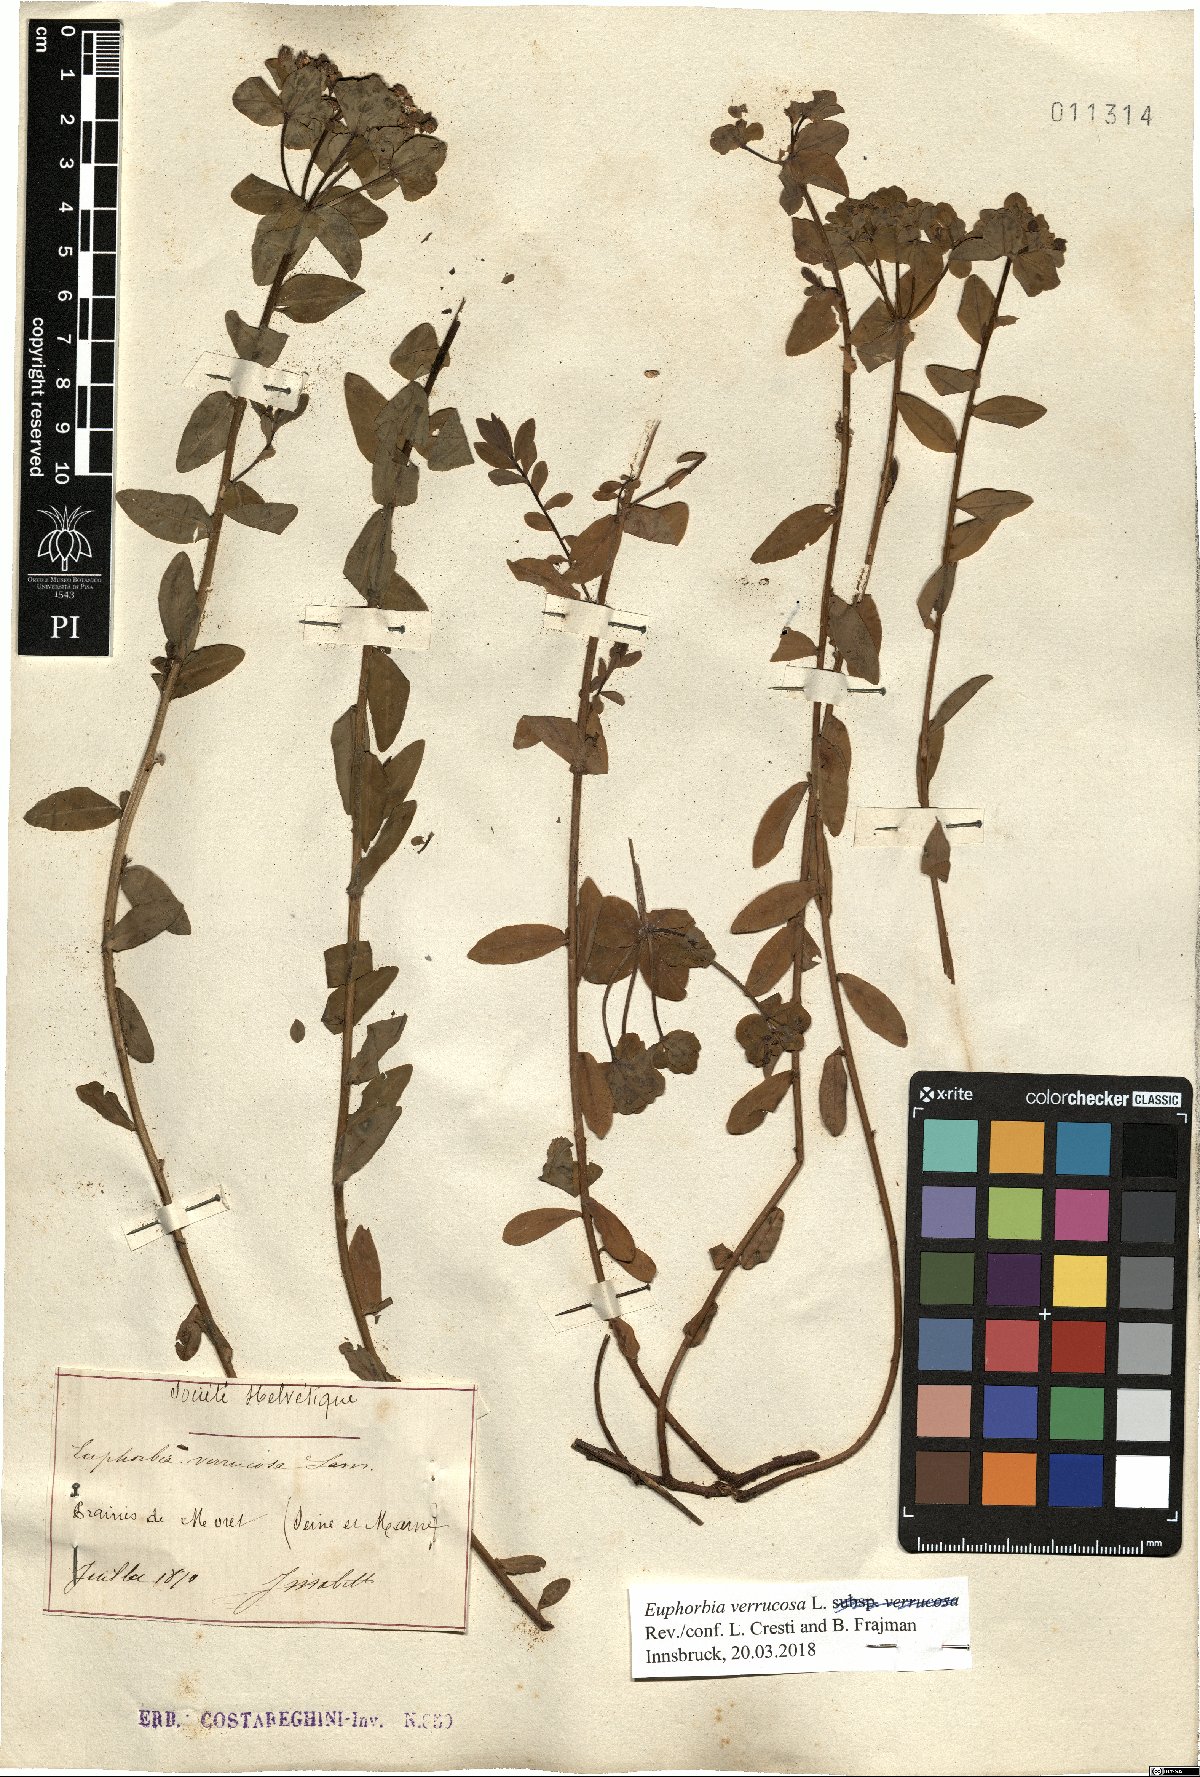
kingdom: Plantae
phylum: Tracheophyta
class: Magnoliopsida
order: Malpighiales
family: Euphorbiaceae
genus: Euphorbia
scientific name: Euphorbia verrucosa
